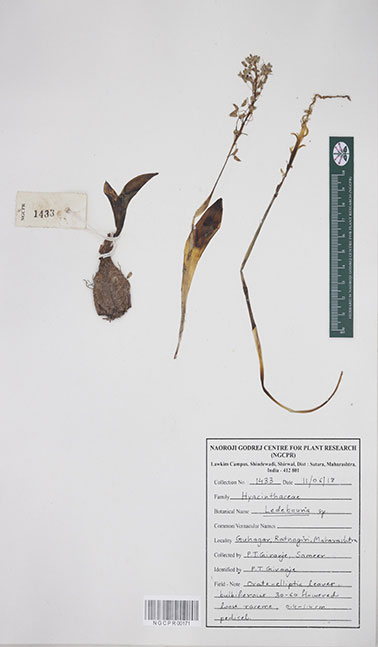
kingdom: Plantae
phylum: Tracheophyta
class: Liliopsida
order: Asparagales
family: Asparagaceae
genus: Ledebouria
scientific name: Ledebouria
